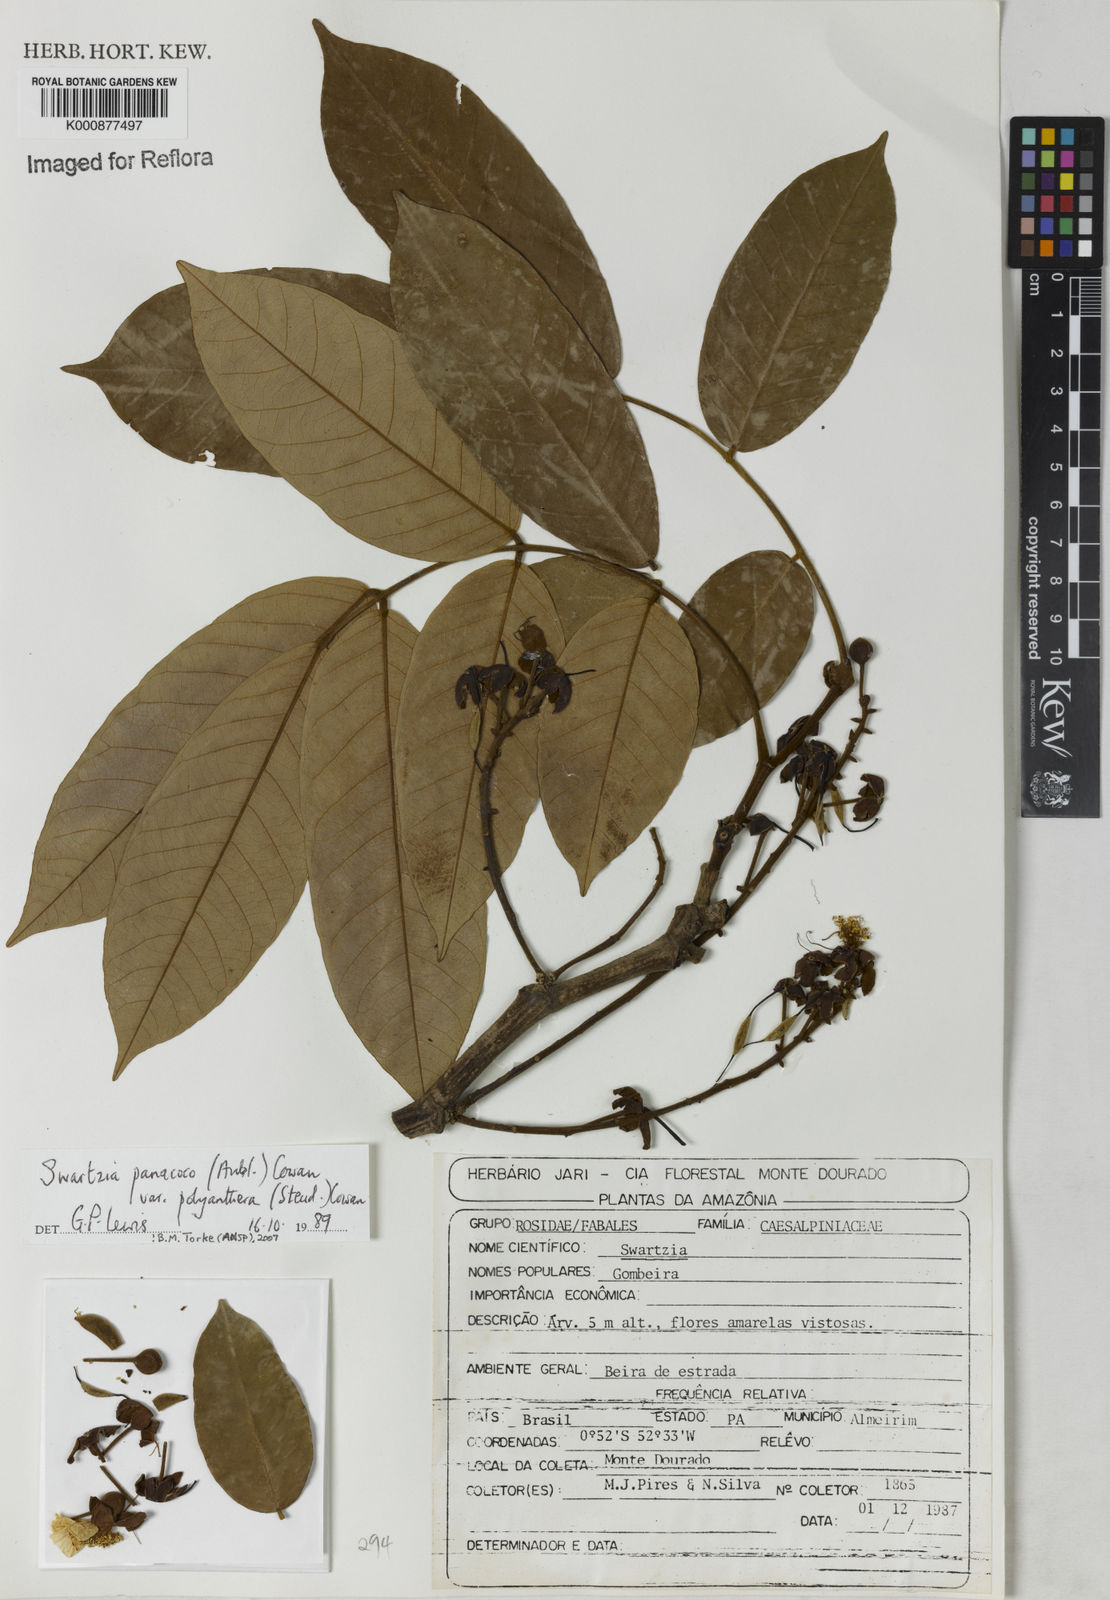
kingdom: Plantae
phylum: Tracheophyta
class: Magnoliopsida
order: Fabales
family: Fabaceae
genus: Swartzia
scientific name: Swartzia panacoco
